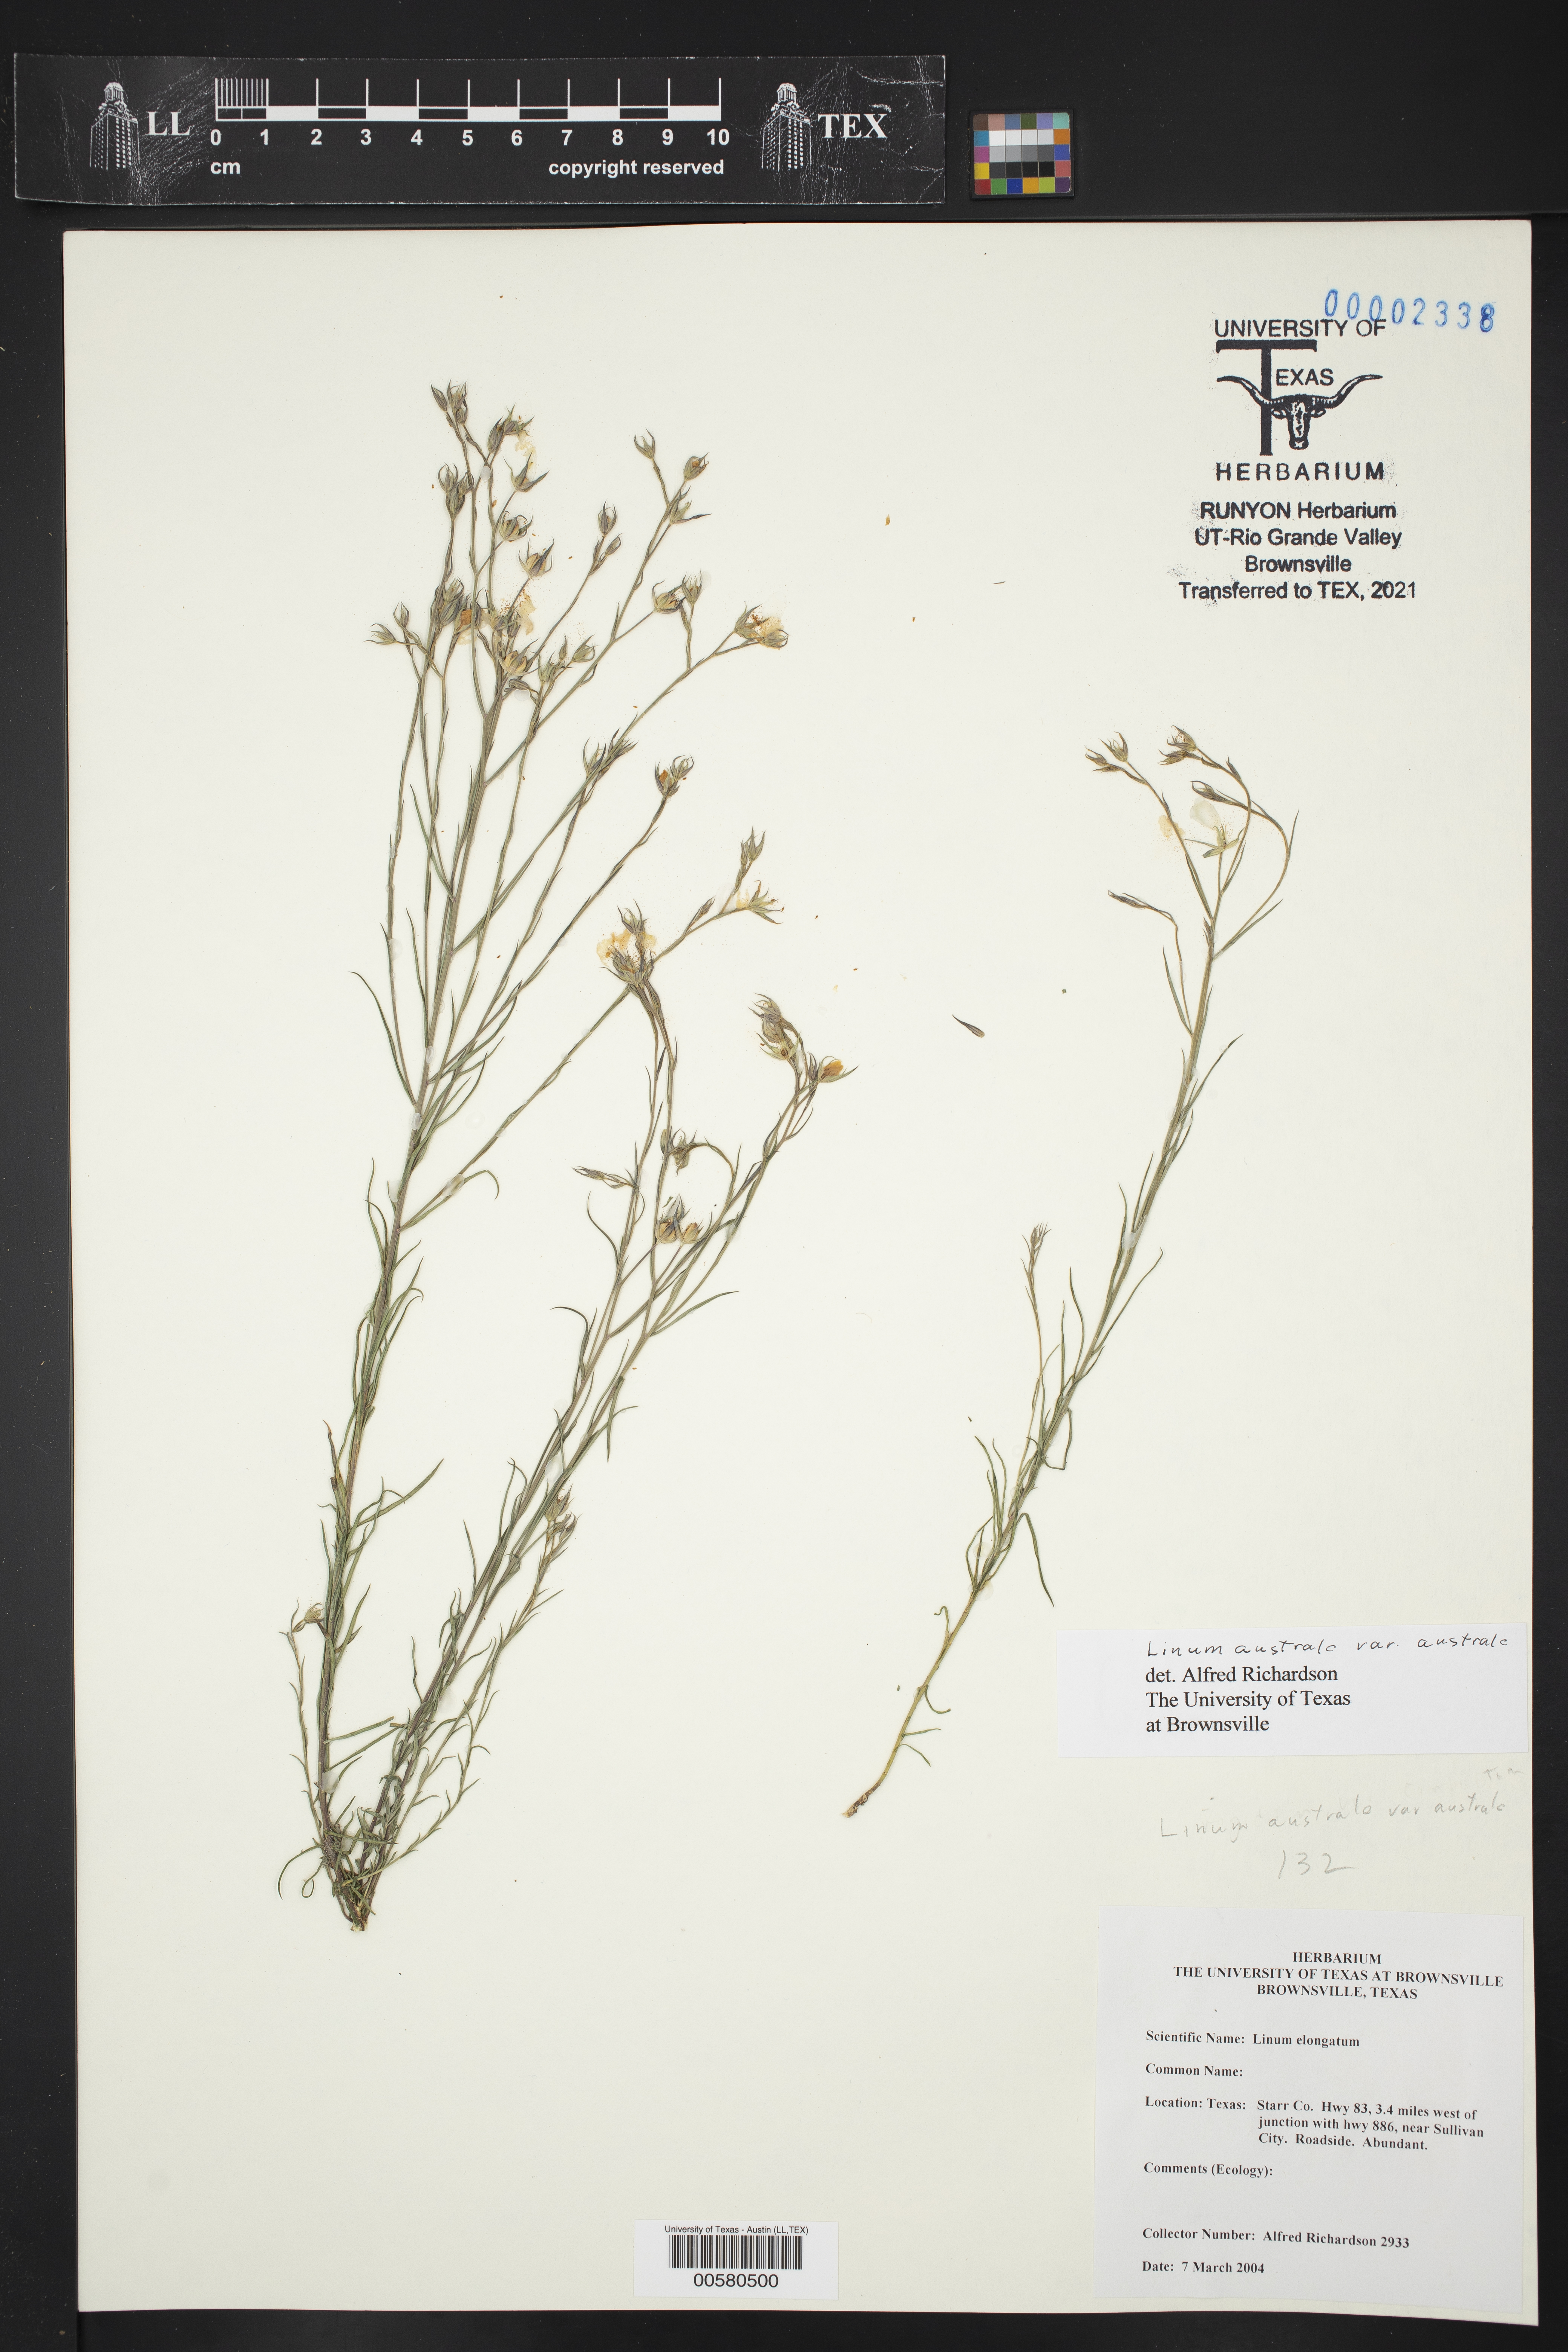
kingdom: Plantae
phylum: Tracheophyta
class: Magnoliopsida
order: Malpighiales
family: Linaceae
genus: Linum
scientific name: Linum australe
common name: Small yellow flax
